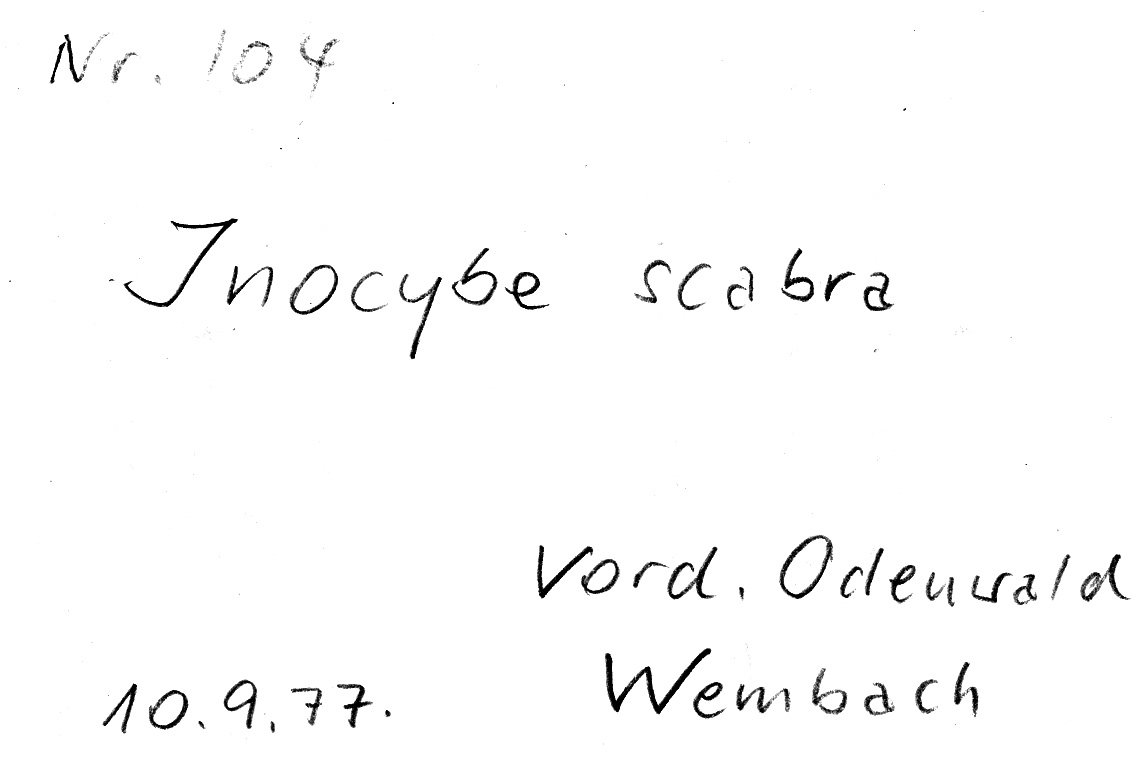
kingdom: Fungi
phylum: Basidiomycota
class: Agaricomycetes
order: Agaricales
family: Inocybaceae
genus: Inocybe
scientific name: Inocybe erinaceomorpha
